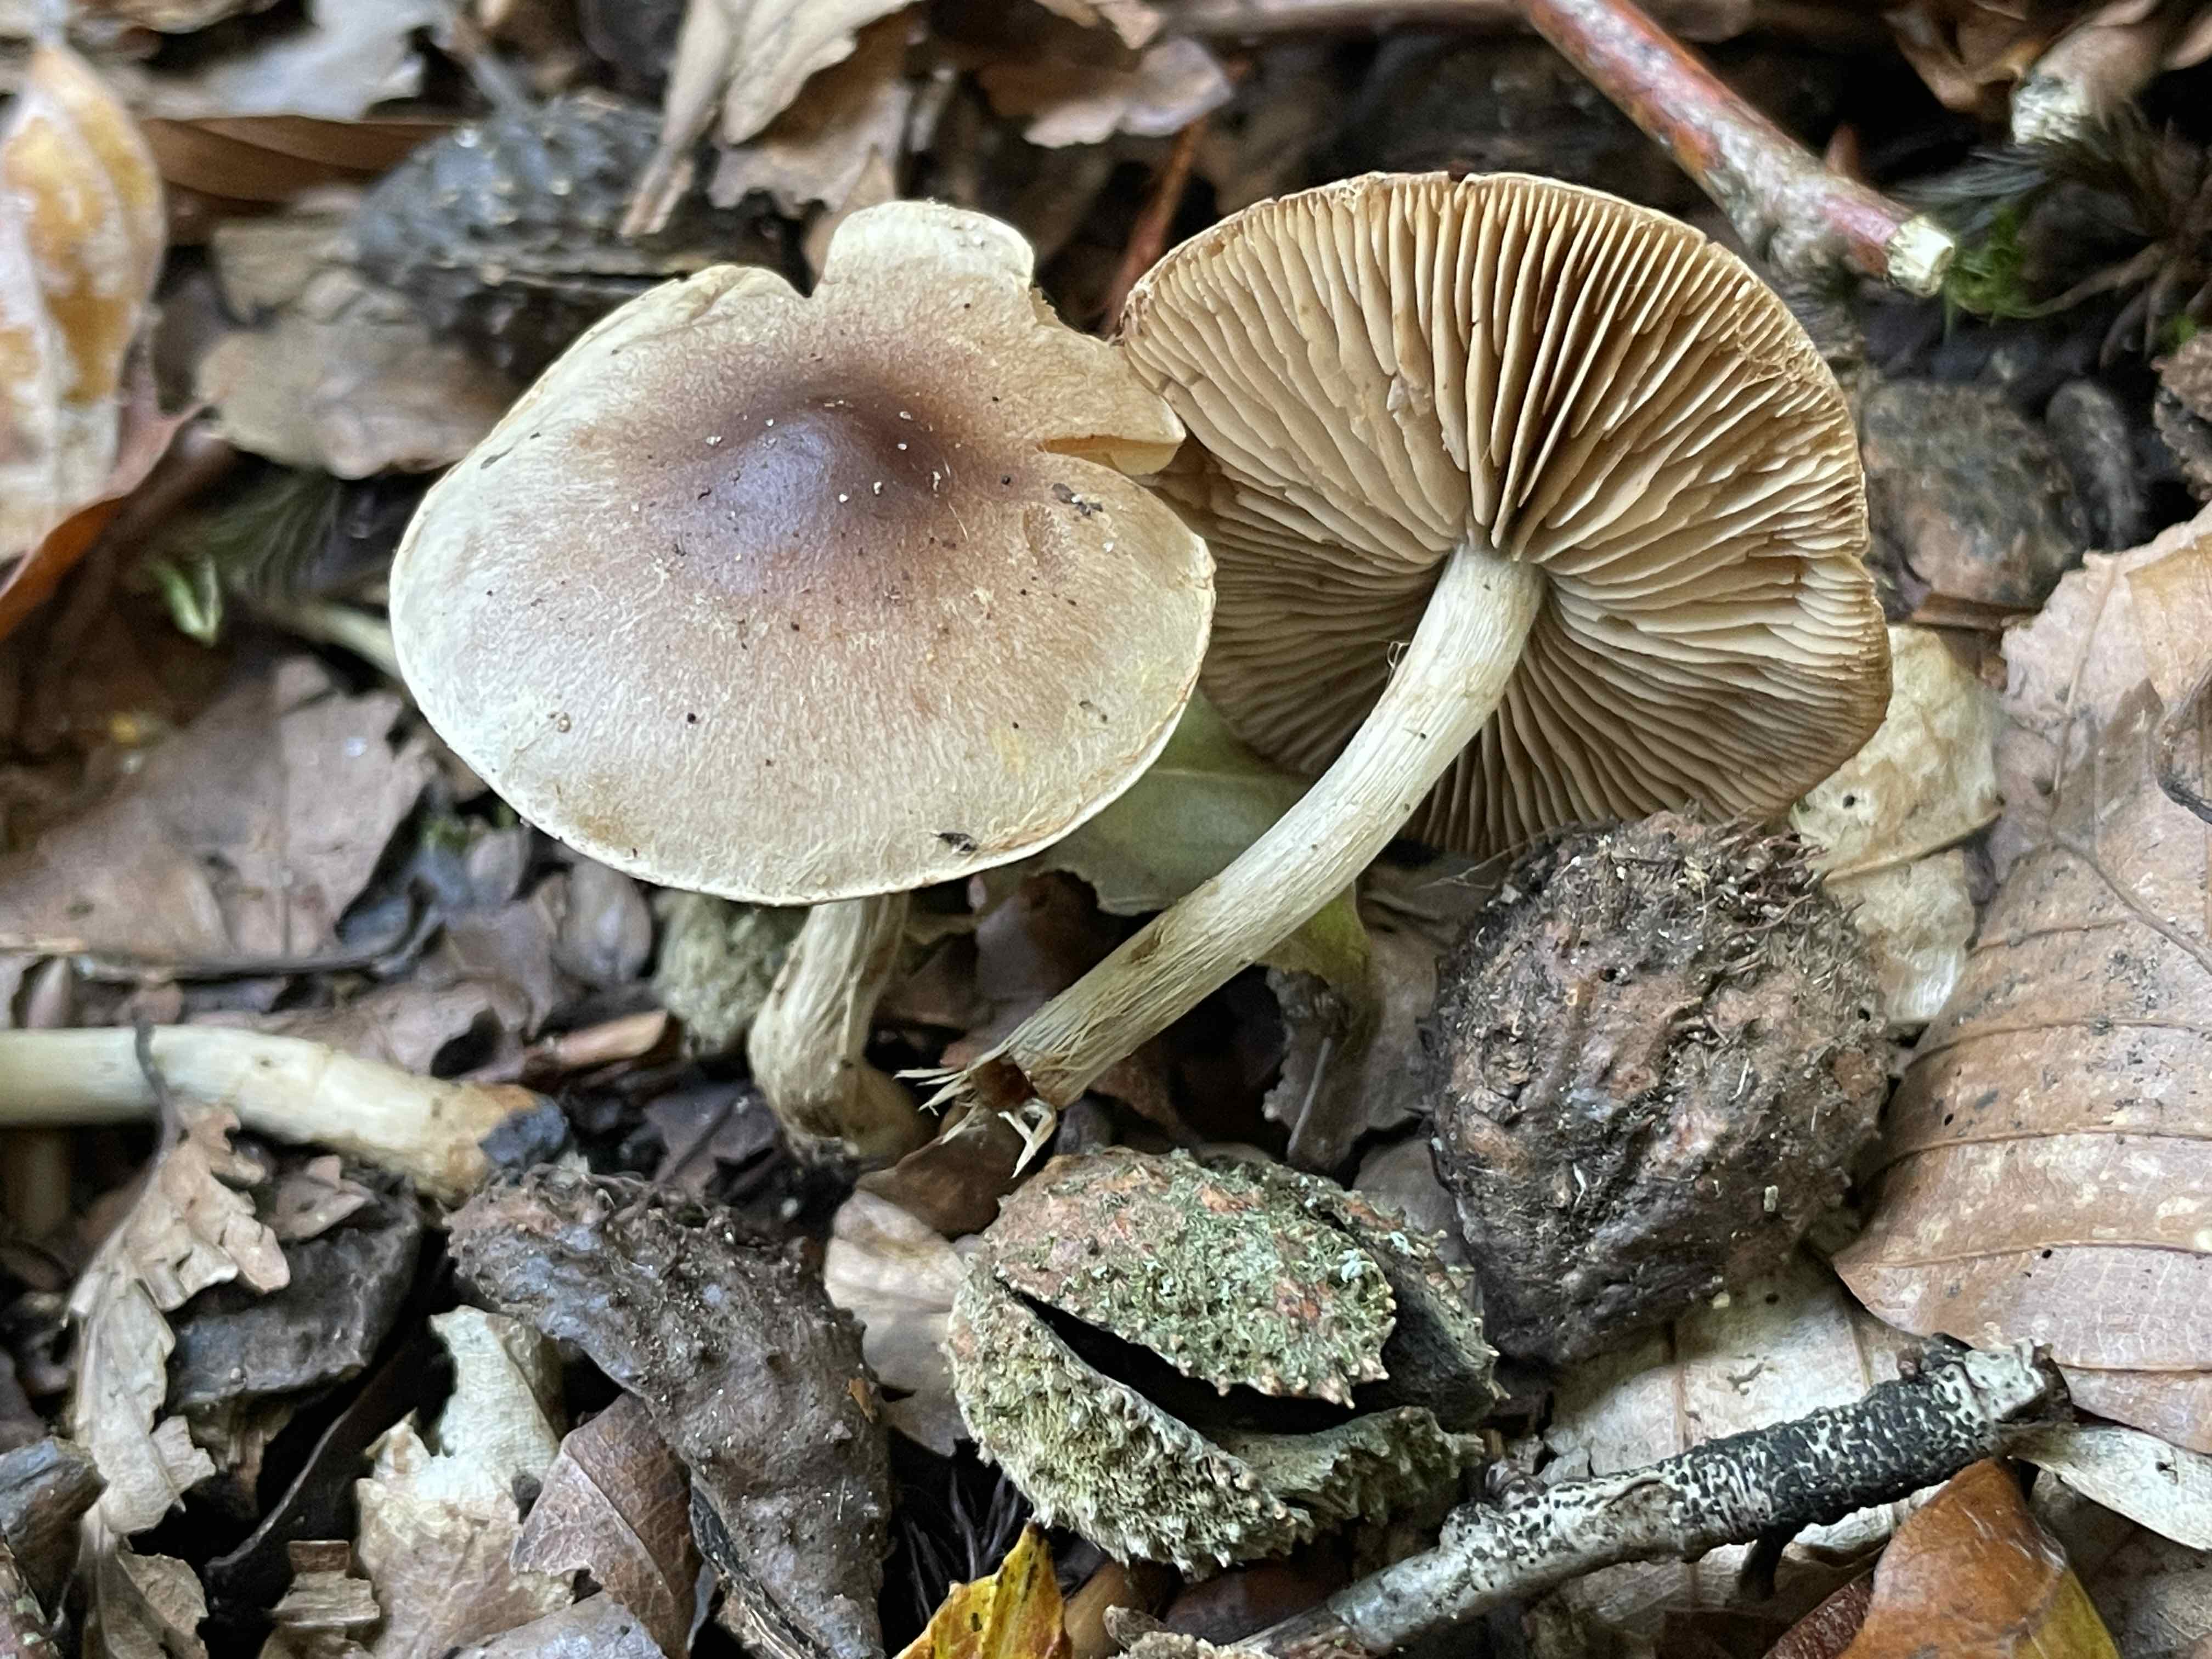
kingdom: Fungi
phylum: Basidiomycota
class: Agaricomycetes
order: Agaricales
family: Hymenogastraceae
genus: Hebeloma
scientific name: Hebeloma mesophaeum
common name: lerbrun tåreblad
